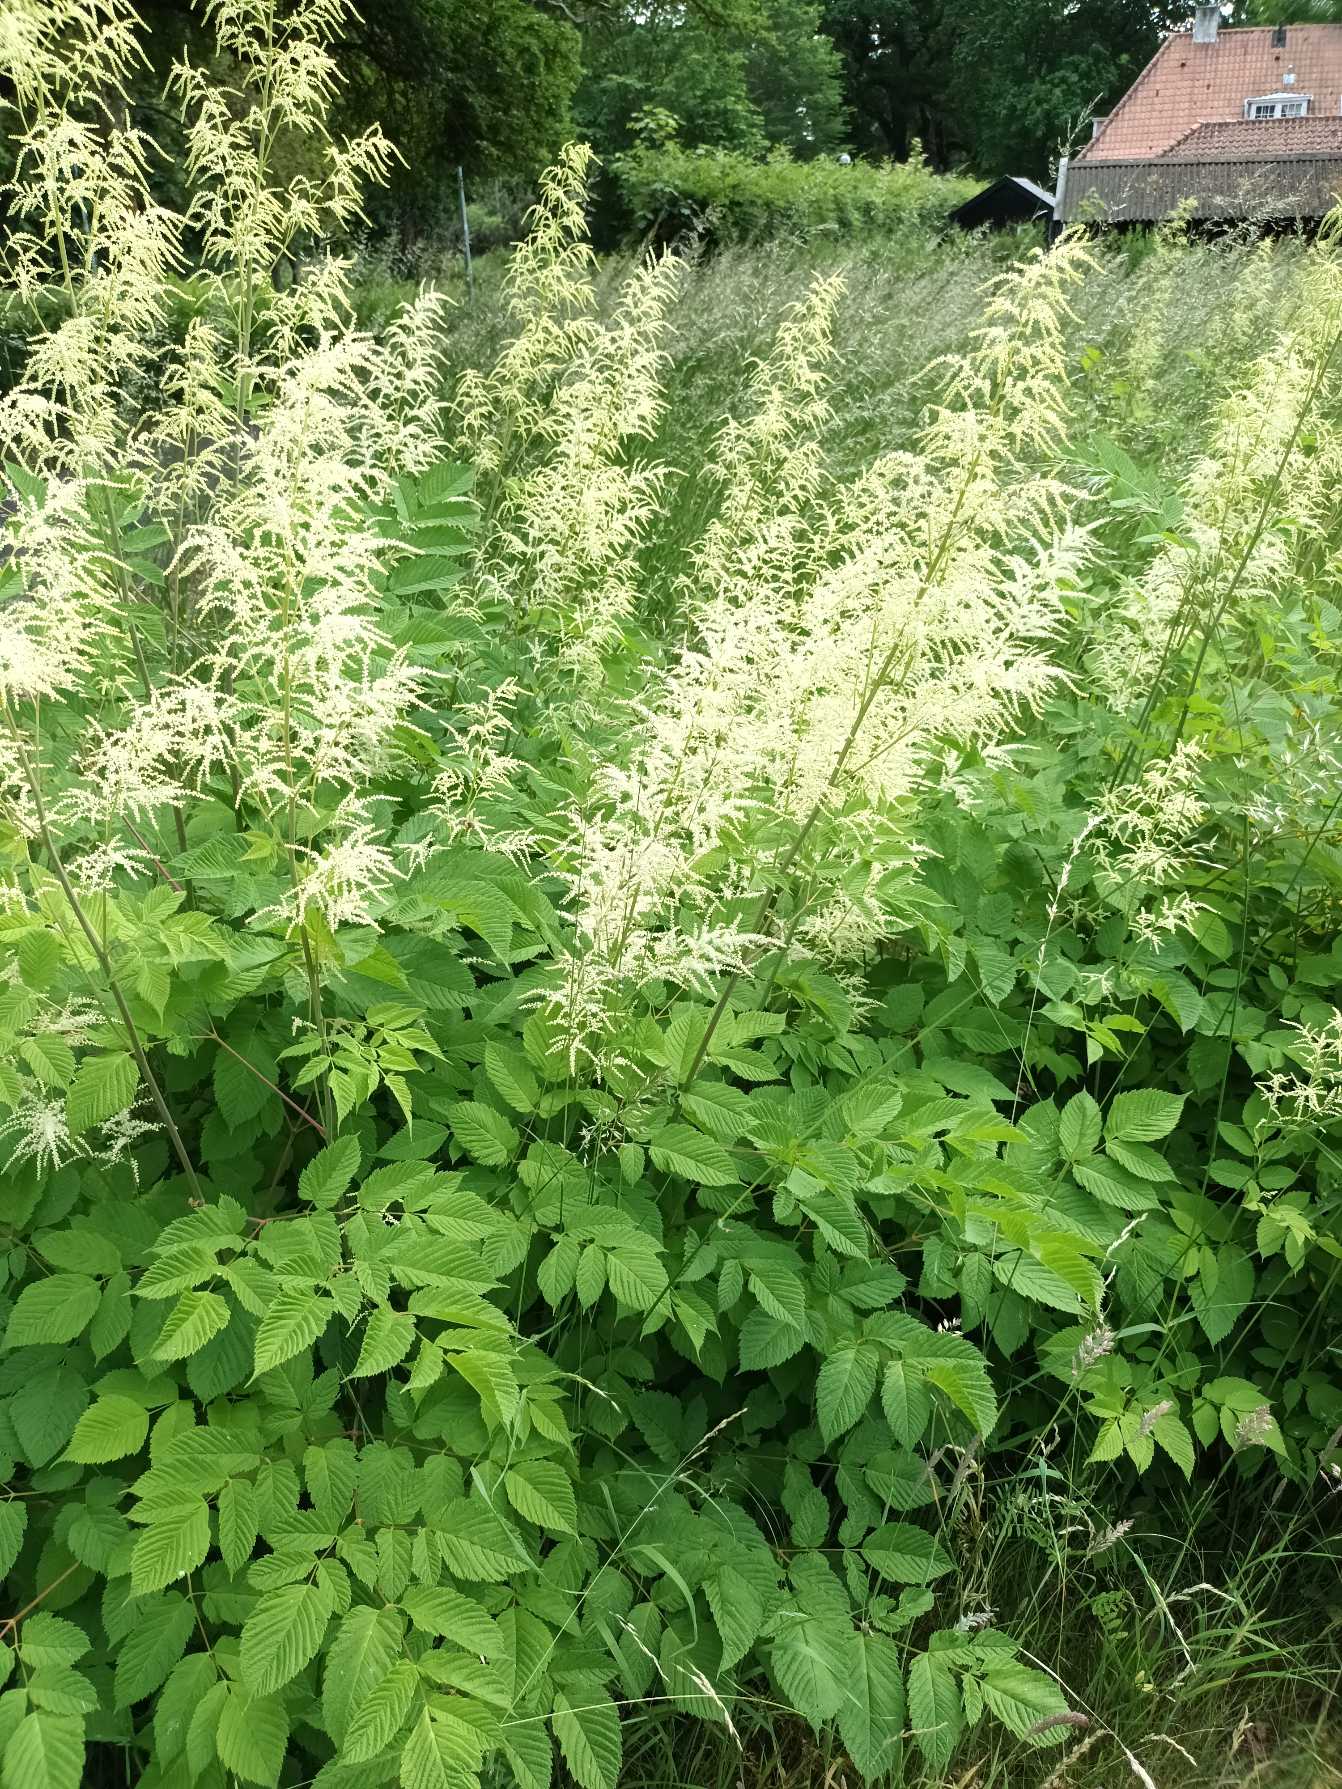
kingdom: Plantae
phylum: Tracheophyta
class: Magnoliopsida
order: Rosales
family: Rosaceae
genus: Aruncus
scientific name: Aruncus dioicus
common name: Fjerbusk
